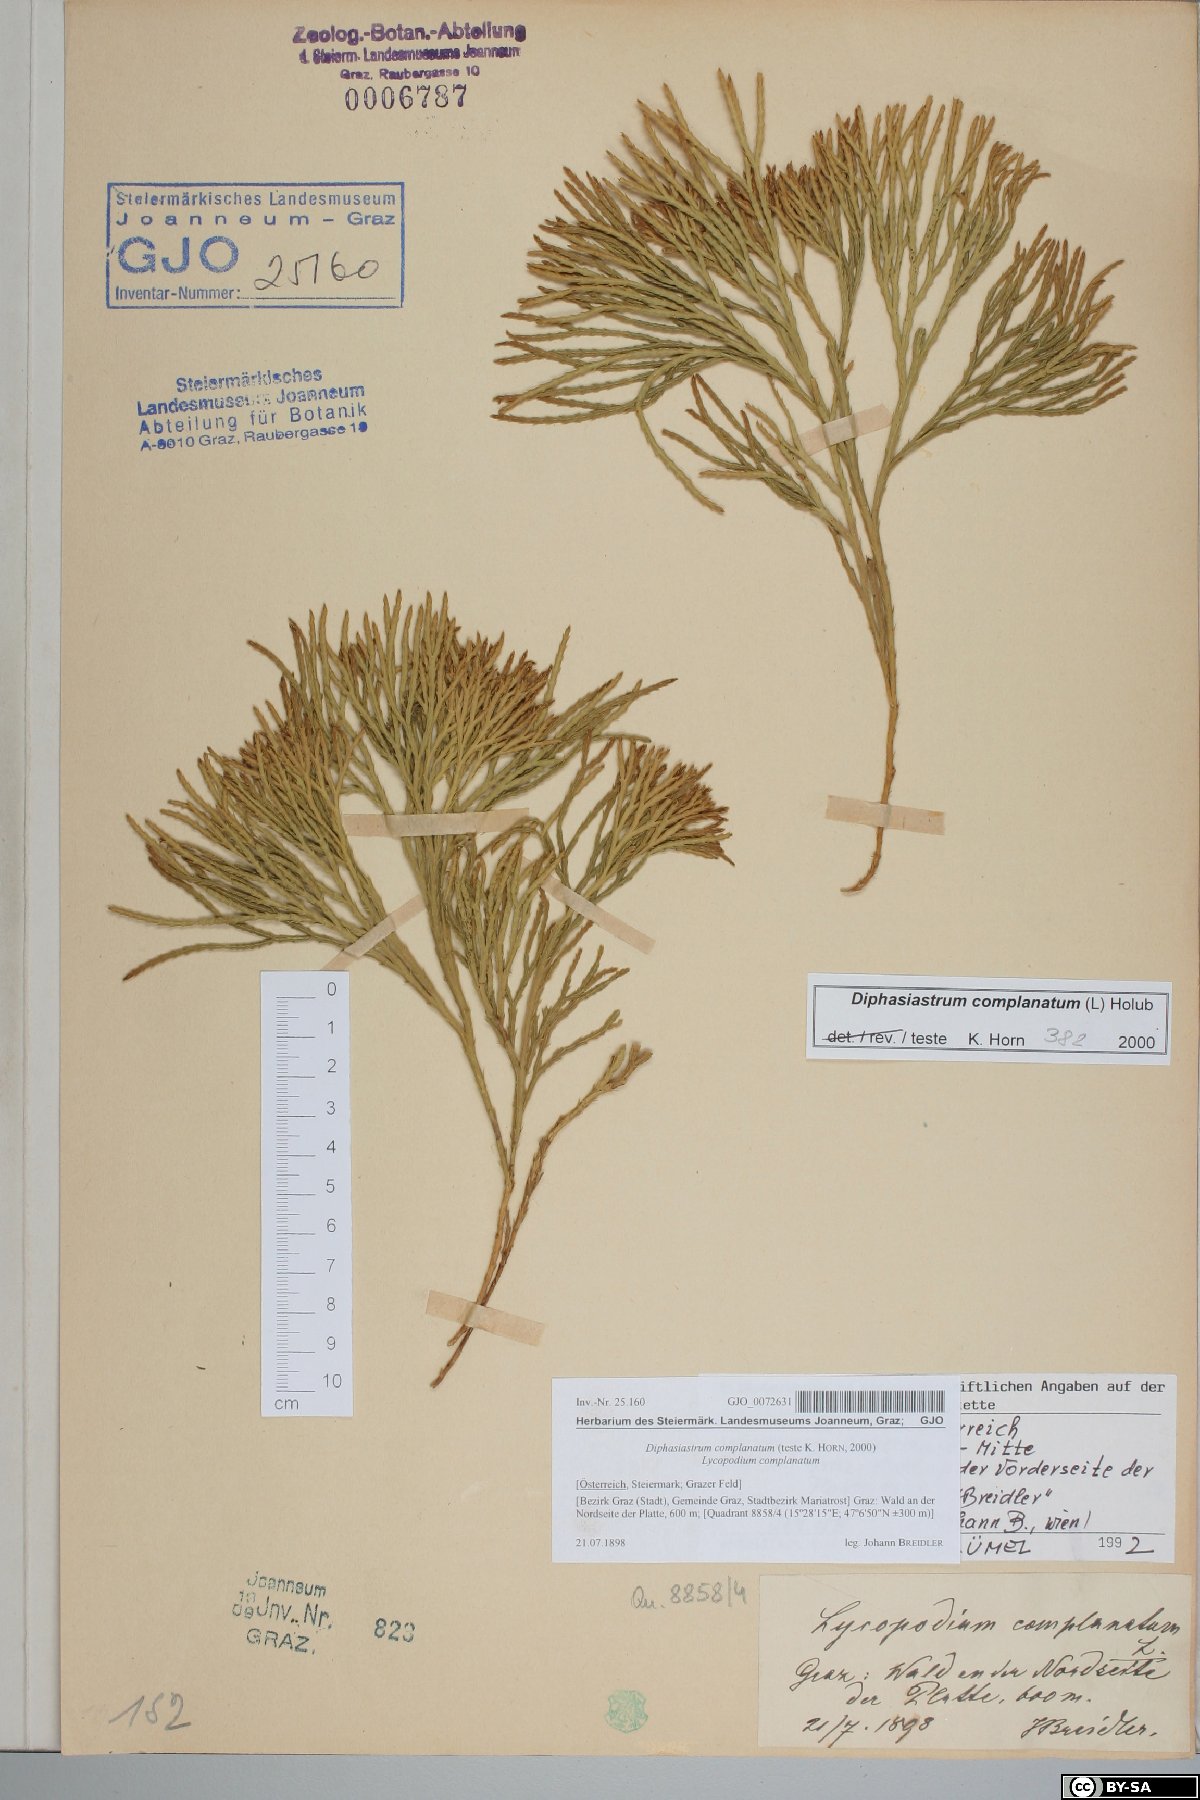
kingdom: Plantae
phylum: Tracheophyta
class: Lycopodiopsida
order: Lycopodiales
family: Lycopodiaceae
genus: Diphasiastrum
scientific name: Diphasiastrum complanatum
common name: Northern running-pine
